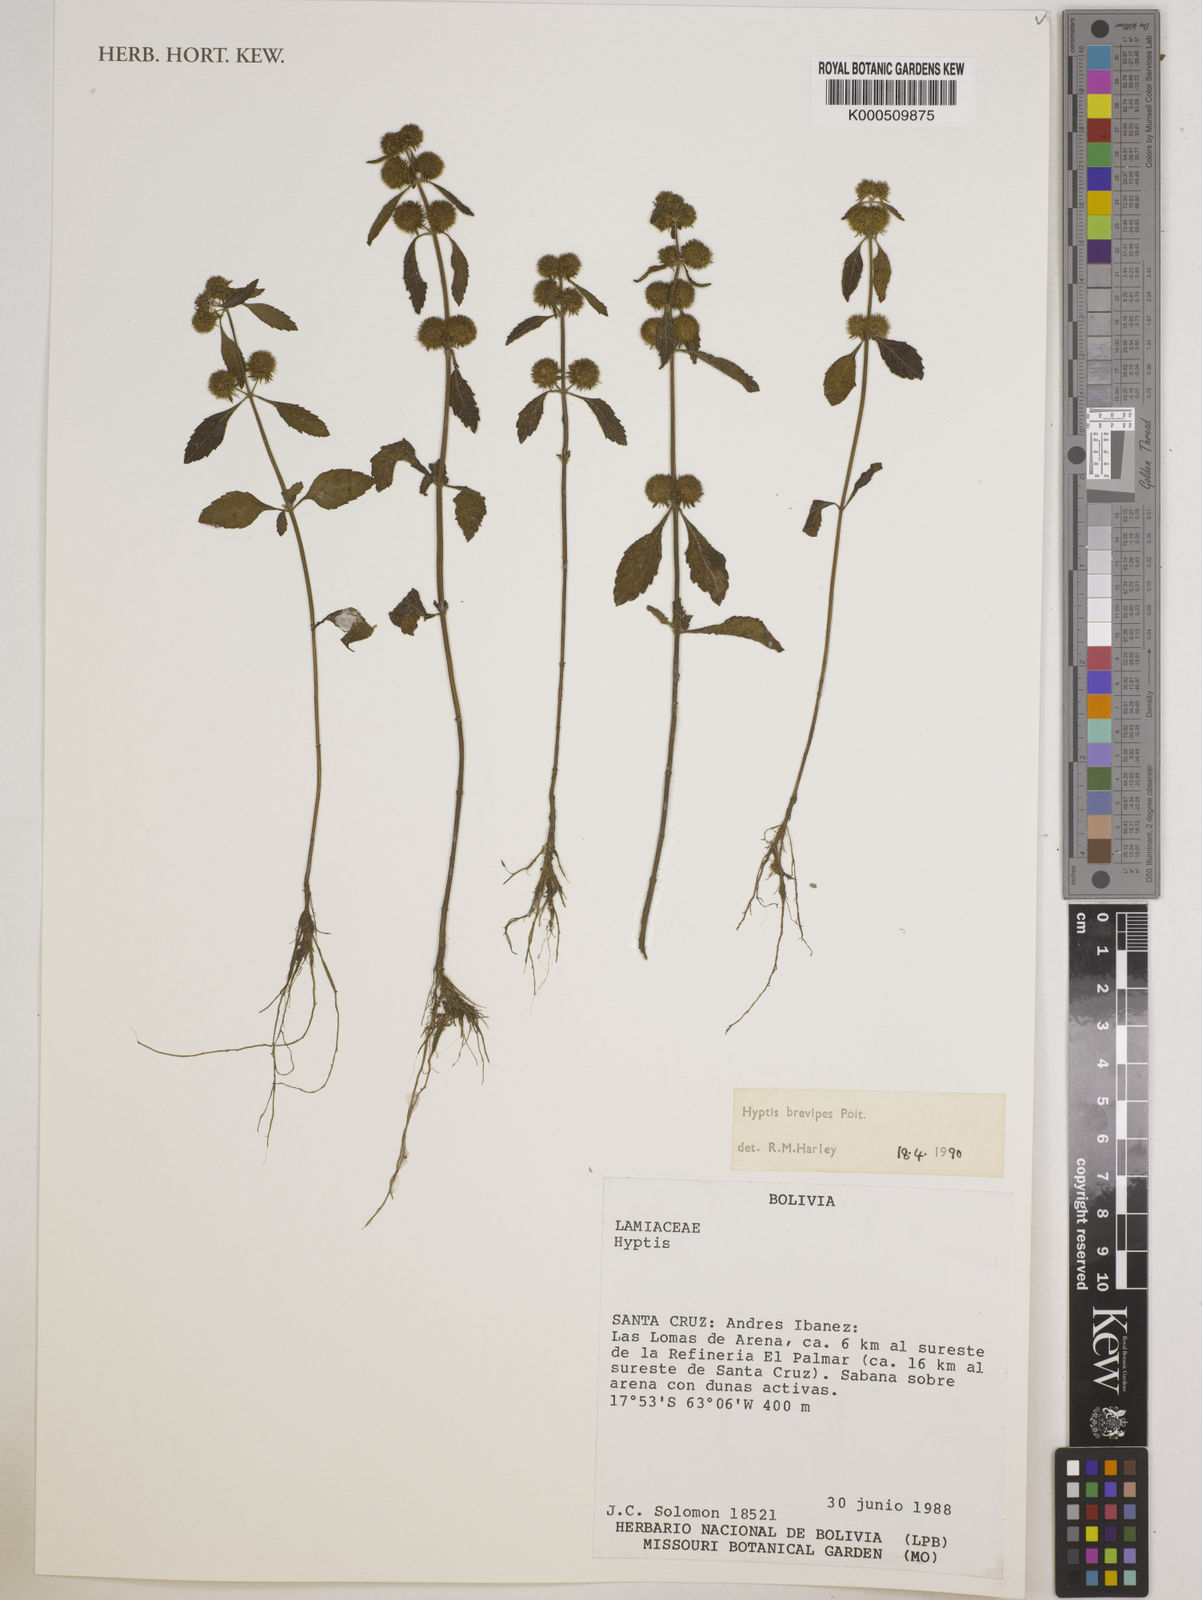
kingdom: Plantae
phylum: Tracheophyta
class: Magnoliopsida
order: Lamiales
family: Lamiaceae
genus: Hyptis
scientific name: Hyptis brevipes
